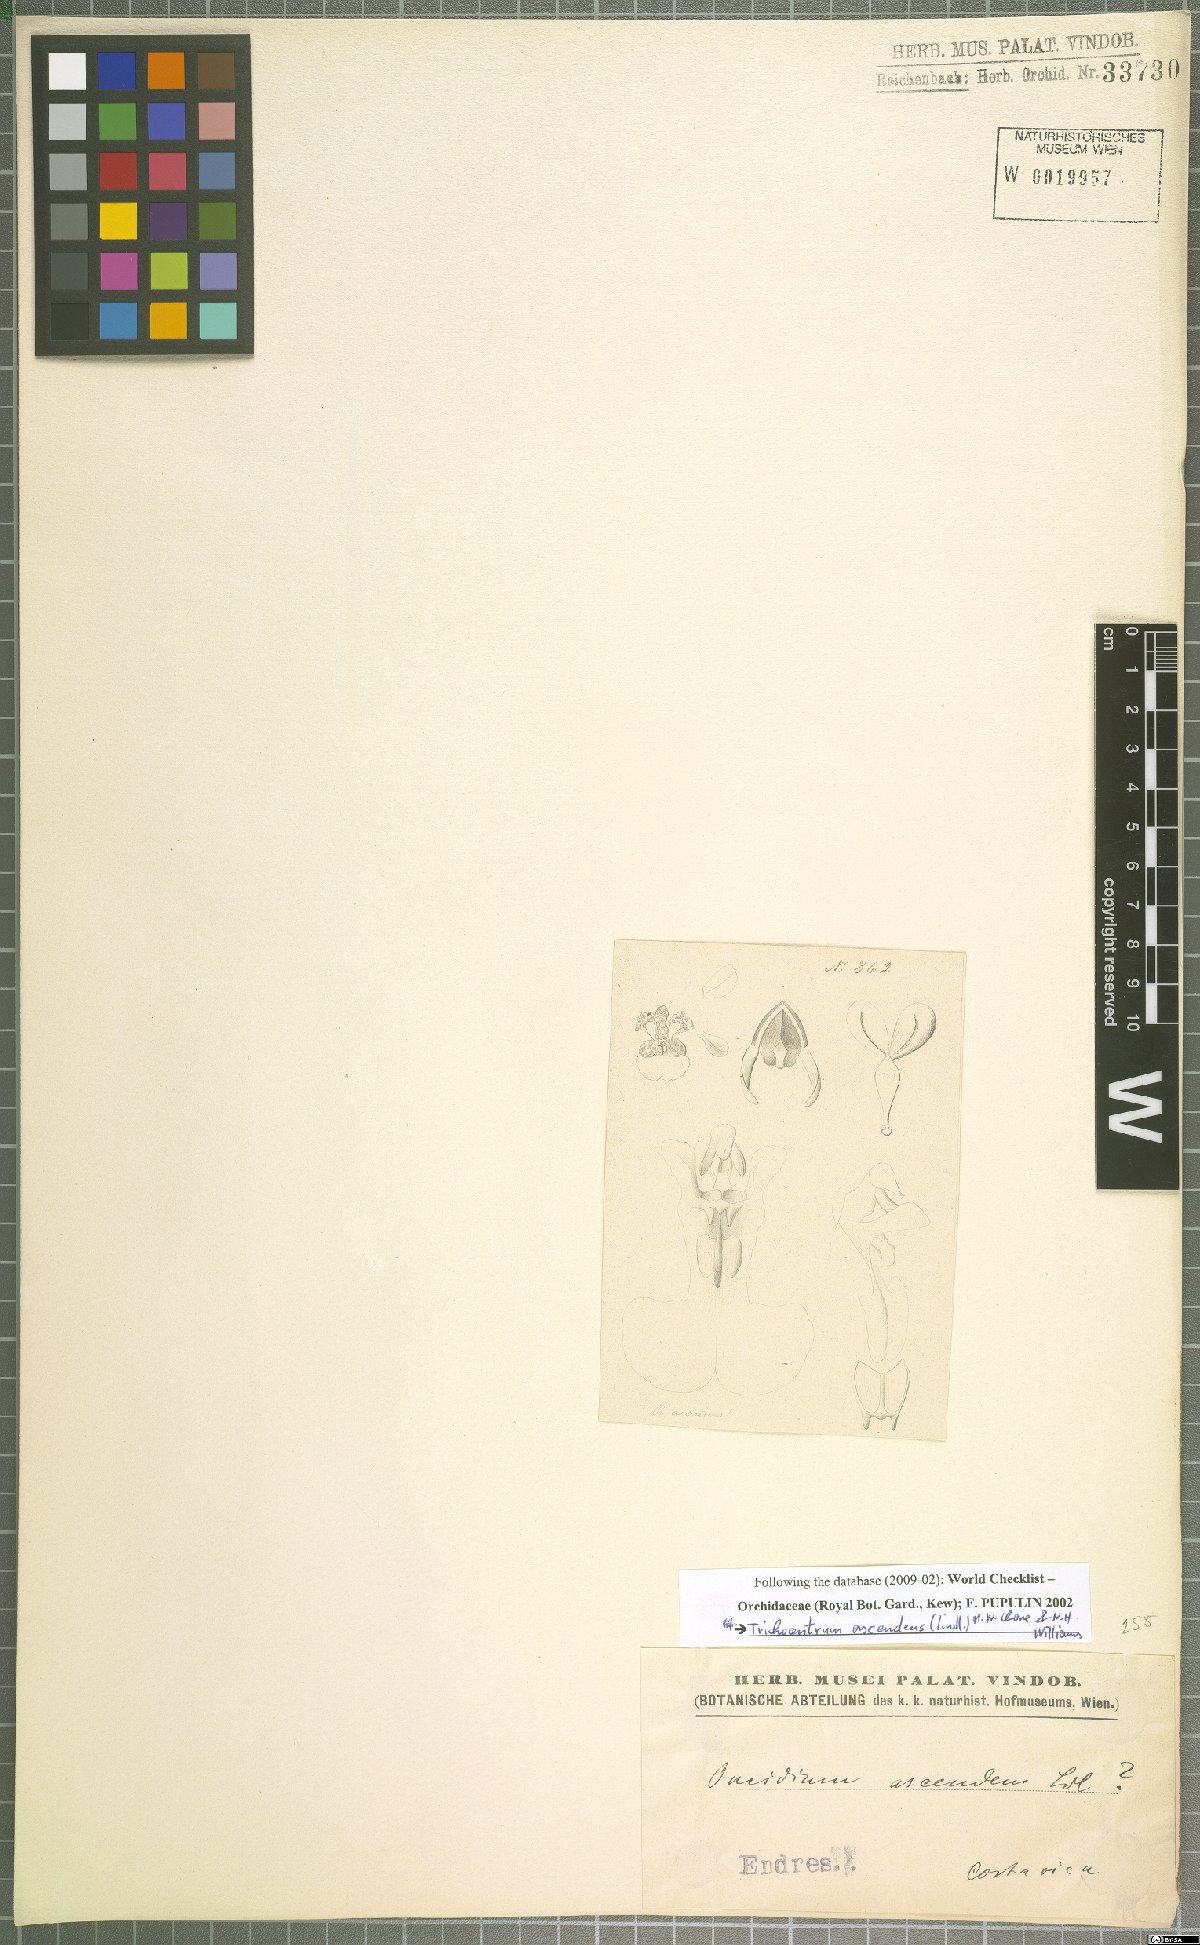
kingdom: Plantae
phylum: Tracheophyta
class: Liliopsida
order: Asparagales
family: Orchidaceae
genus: Trichocentrum
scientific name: Trichocentrum ascendens
